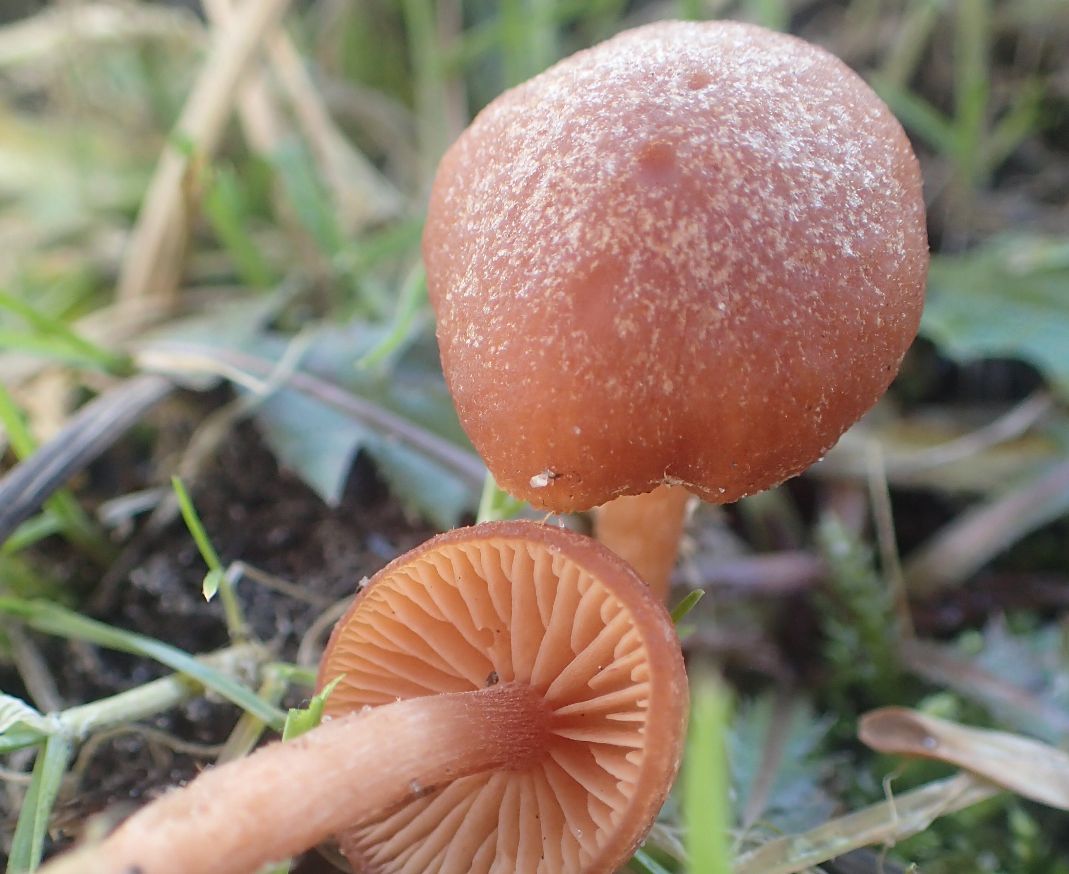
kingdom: Fungi
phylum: Basidiomycota
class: Agaricomycetes
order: Agaricales
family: Tubariaceae
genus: Tubaria
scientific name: Tubaria furfuracea
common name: kliddet fnughat
